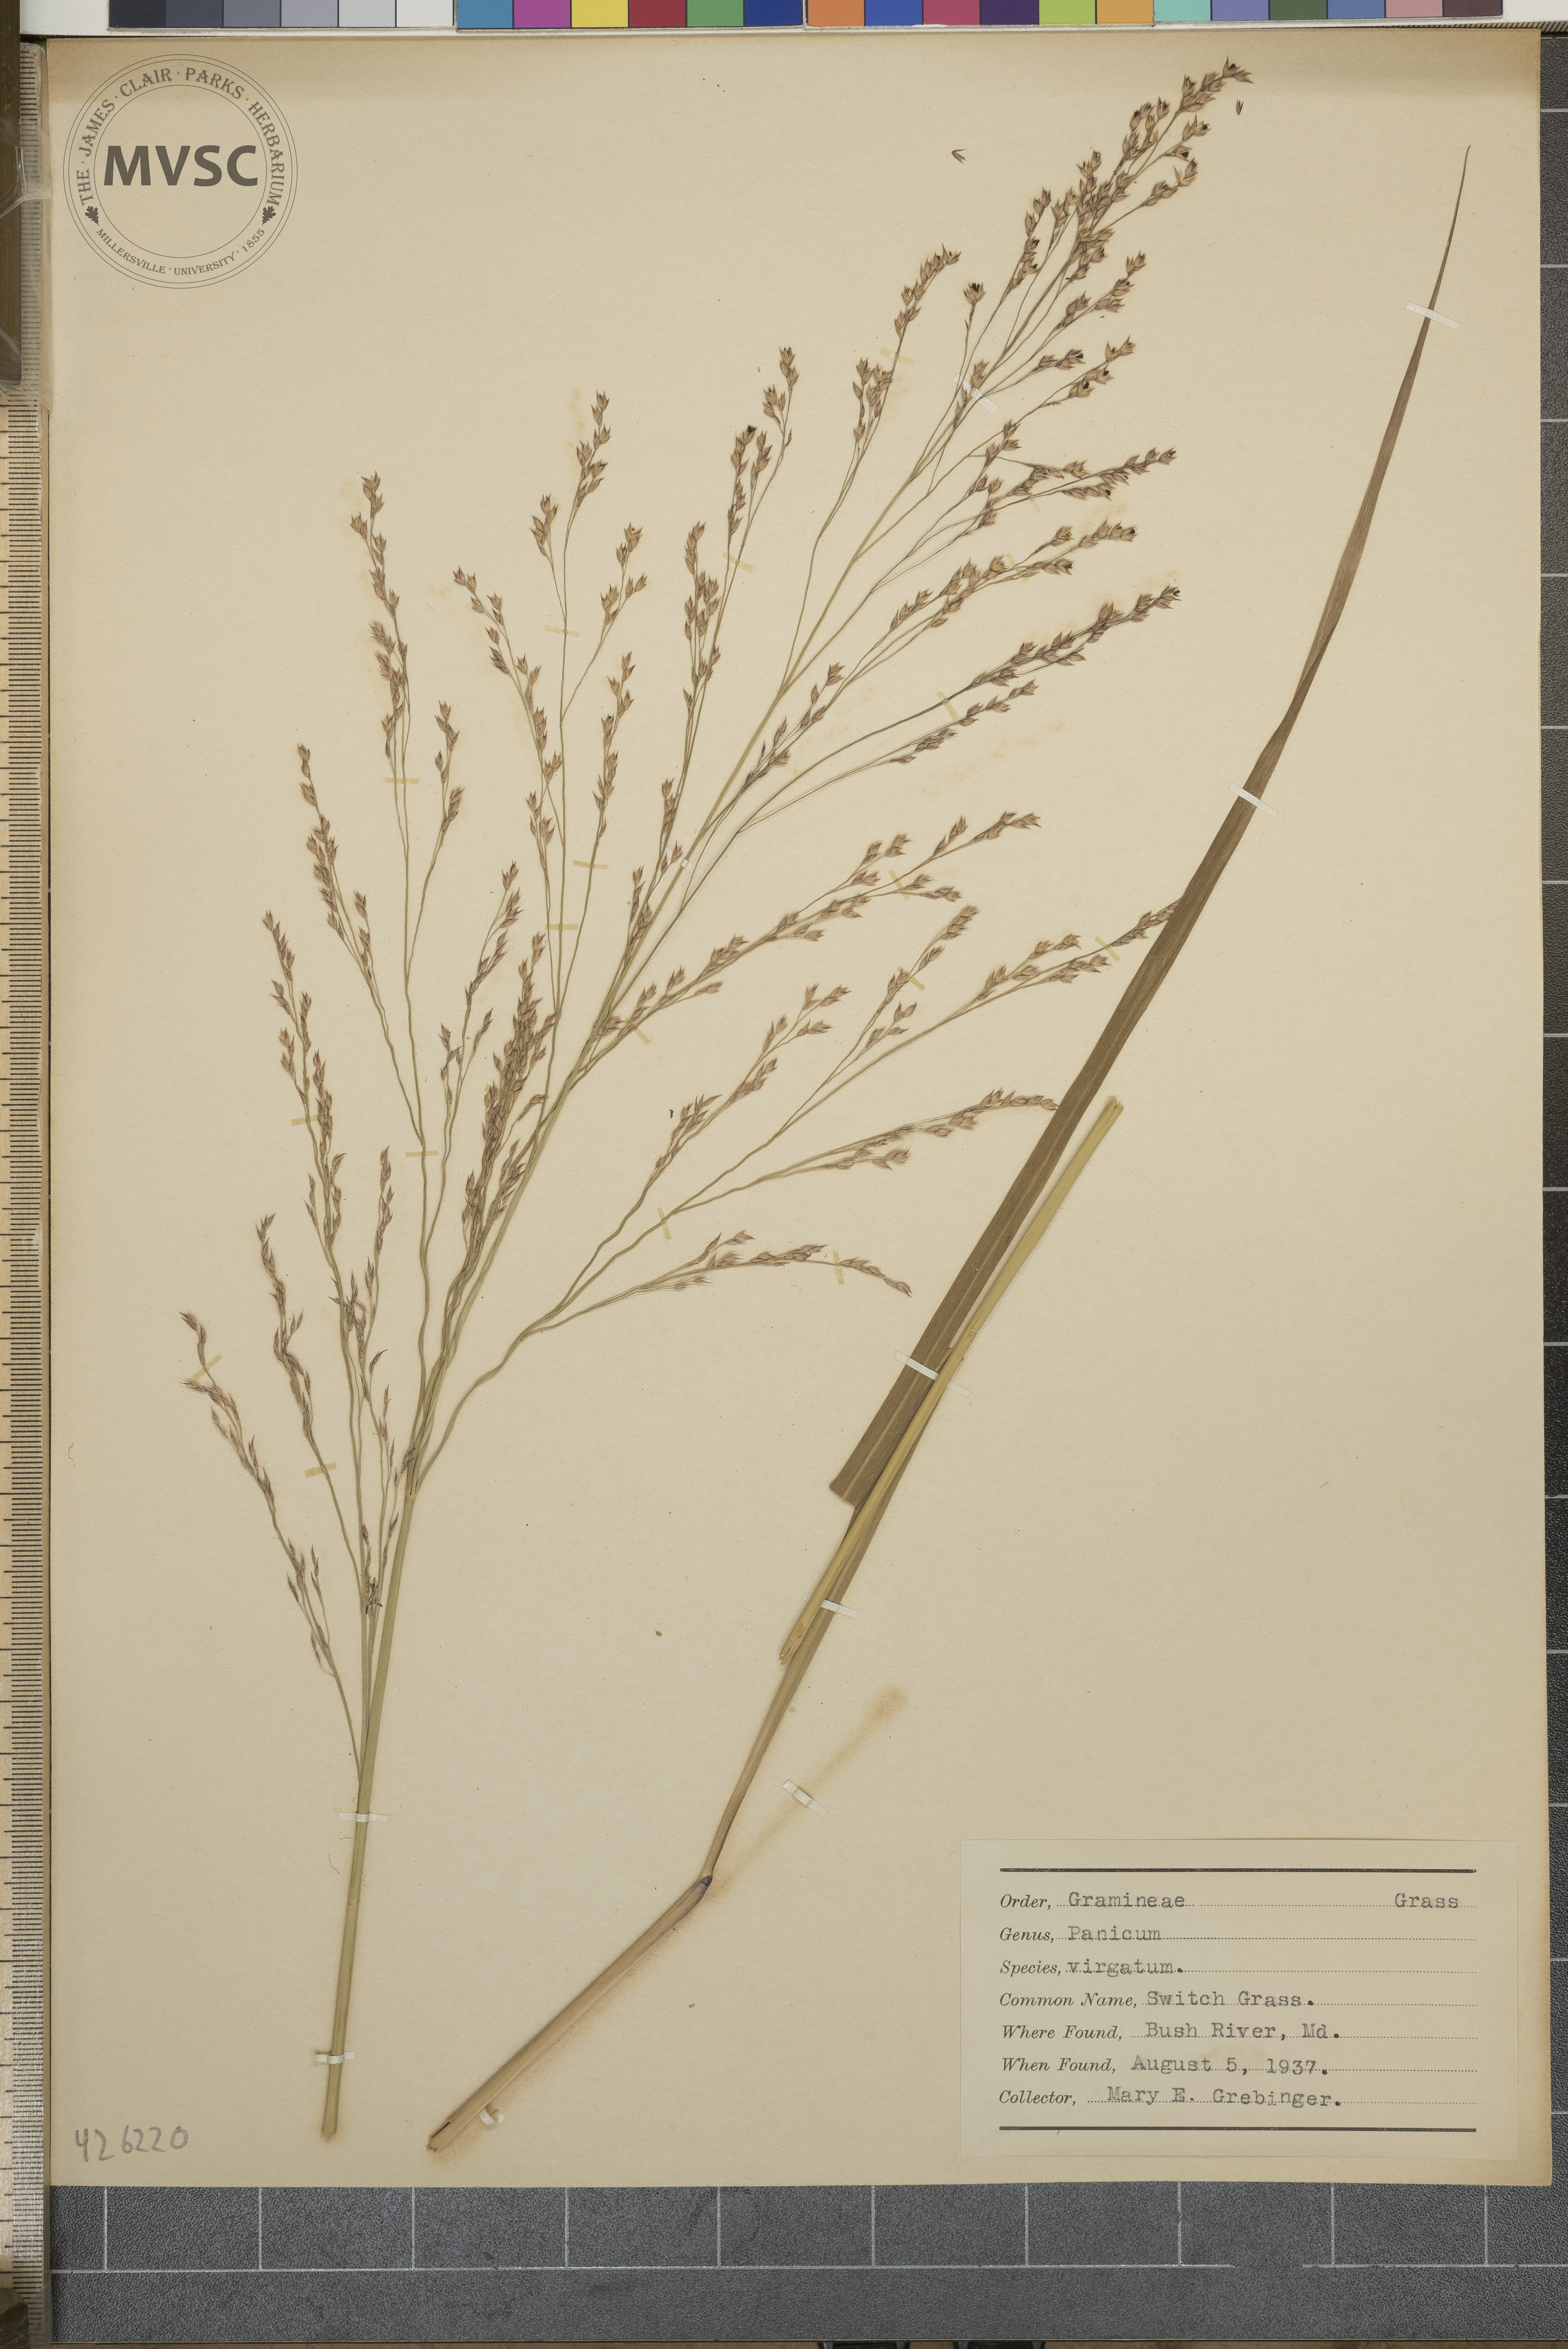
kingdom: Plantae
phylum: Tracheophyta
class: Liliopsida
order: Poales
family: Poaceae
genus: Panicum
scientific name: Panicum virgatum
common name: Switch grass
